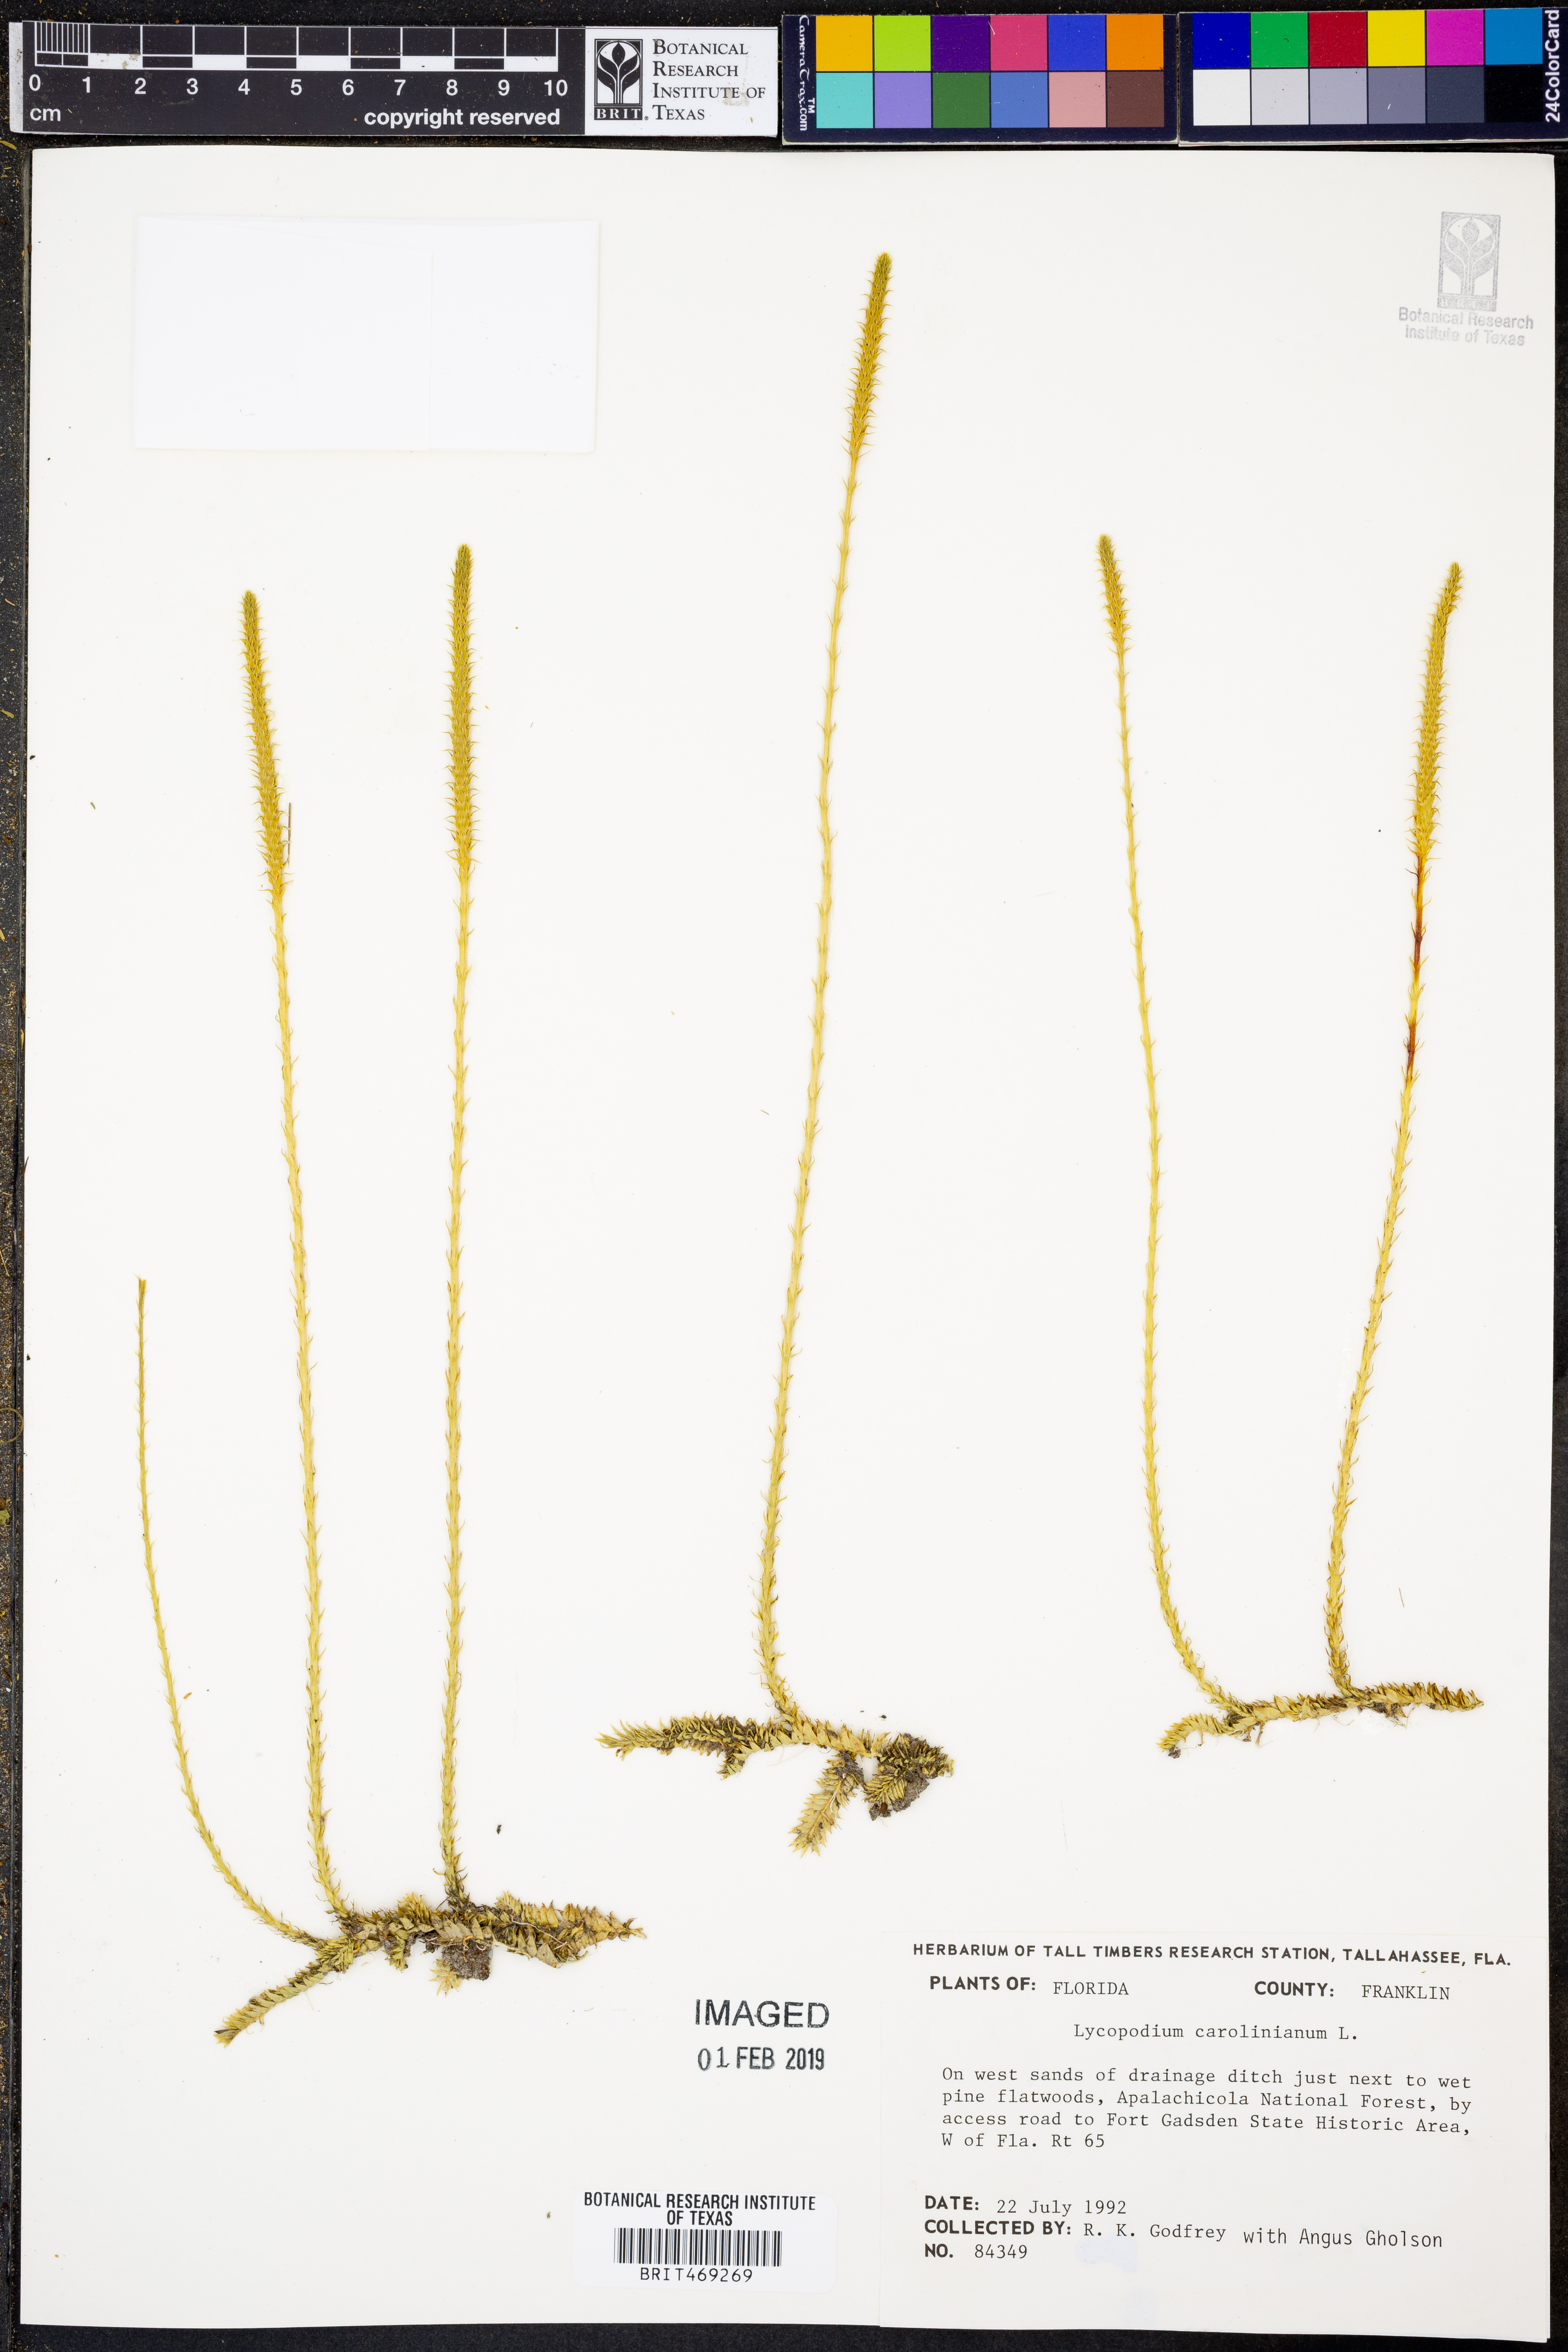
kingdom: Plantae
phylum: Tracheophyta
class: Lycopodiopsida
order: Lycopodiales
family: Lycopodiaceae
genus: Pseudolycopodiella
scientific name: Pseudolycopodiella caroliniana
